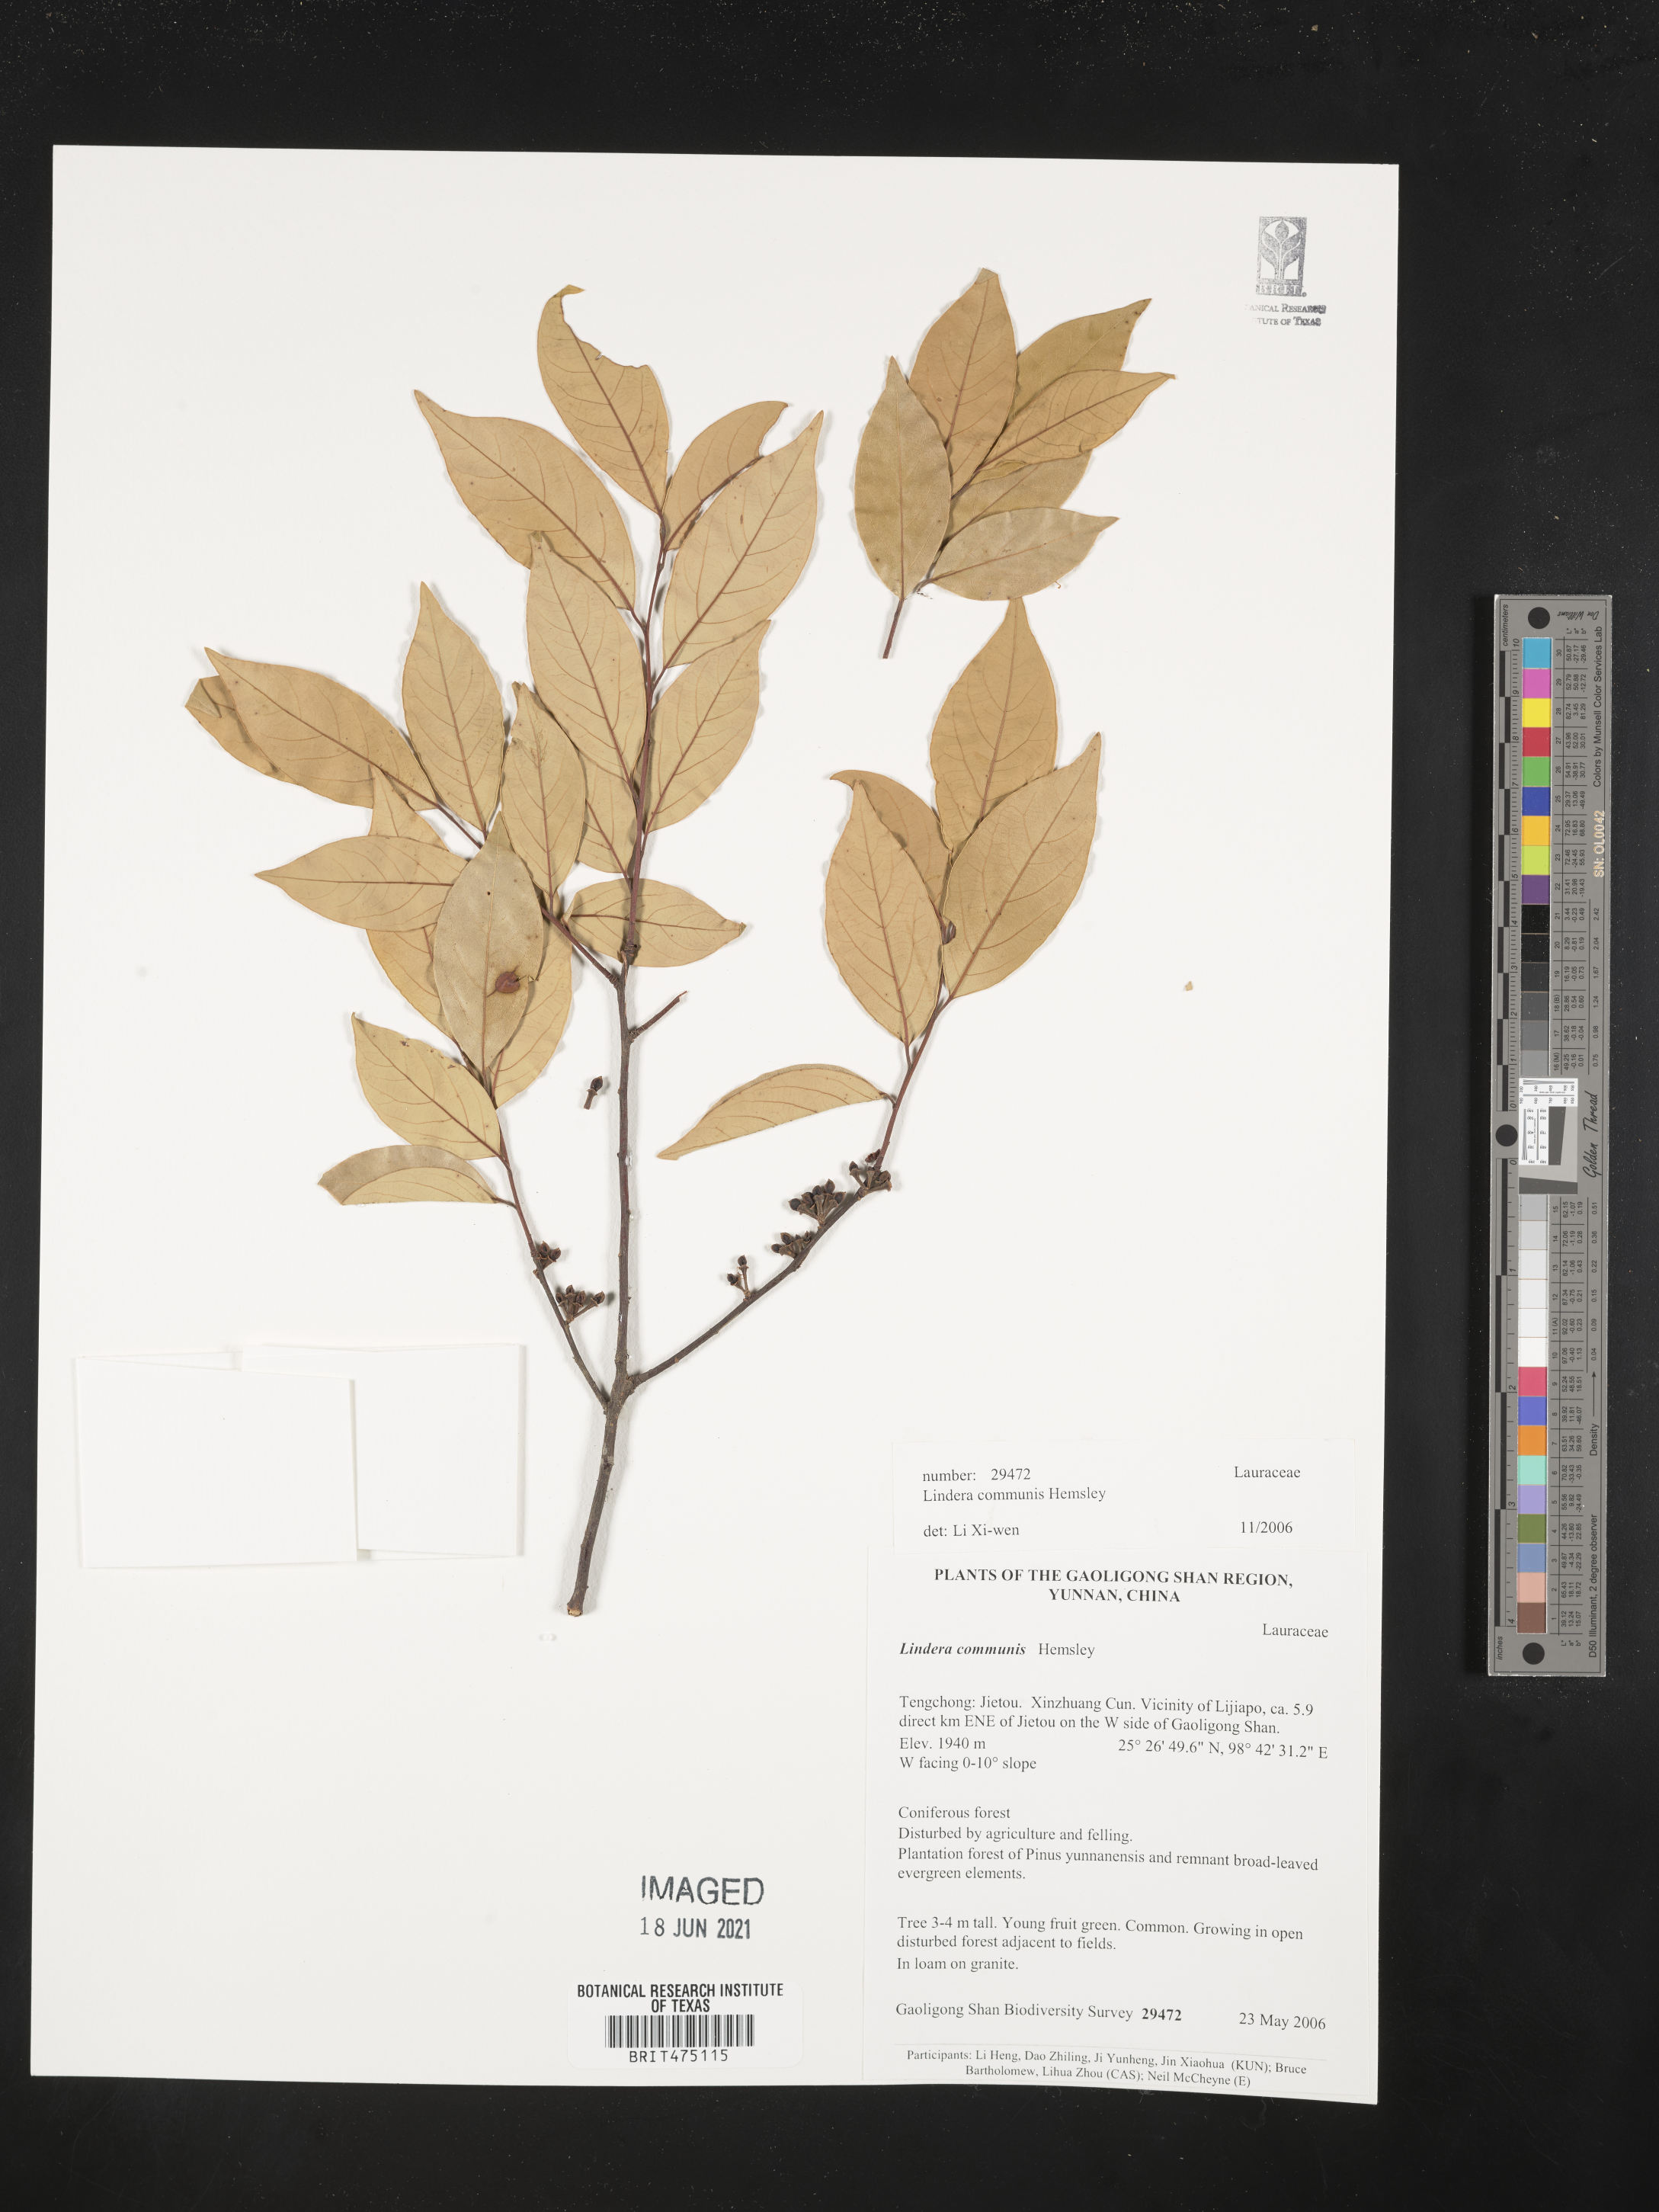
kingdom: Plantae
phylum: Tracheophyta
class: Magnoliopsida
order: Laurales
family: Lauraceae
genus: Lindera
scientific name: Lindera communis
